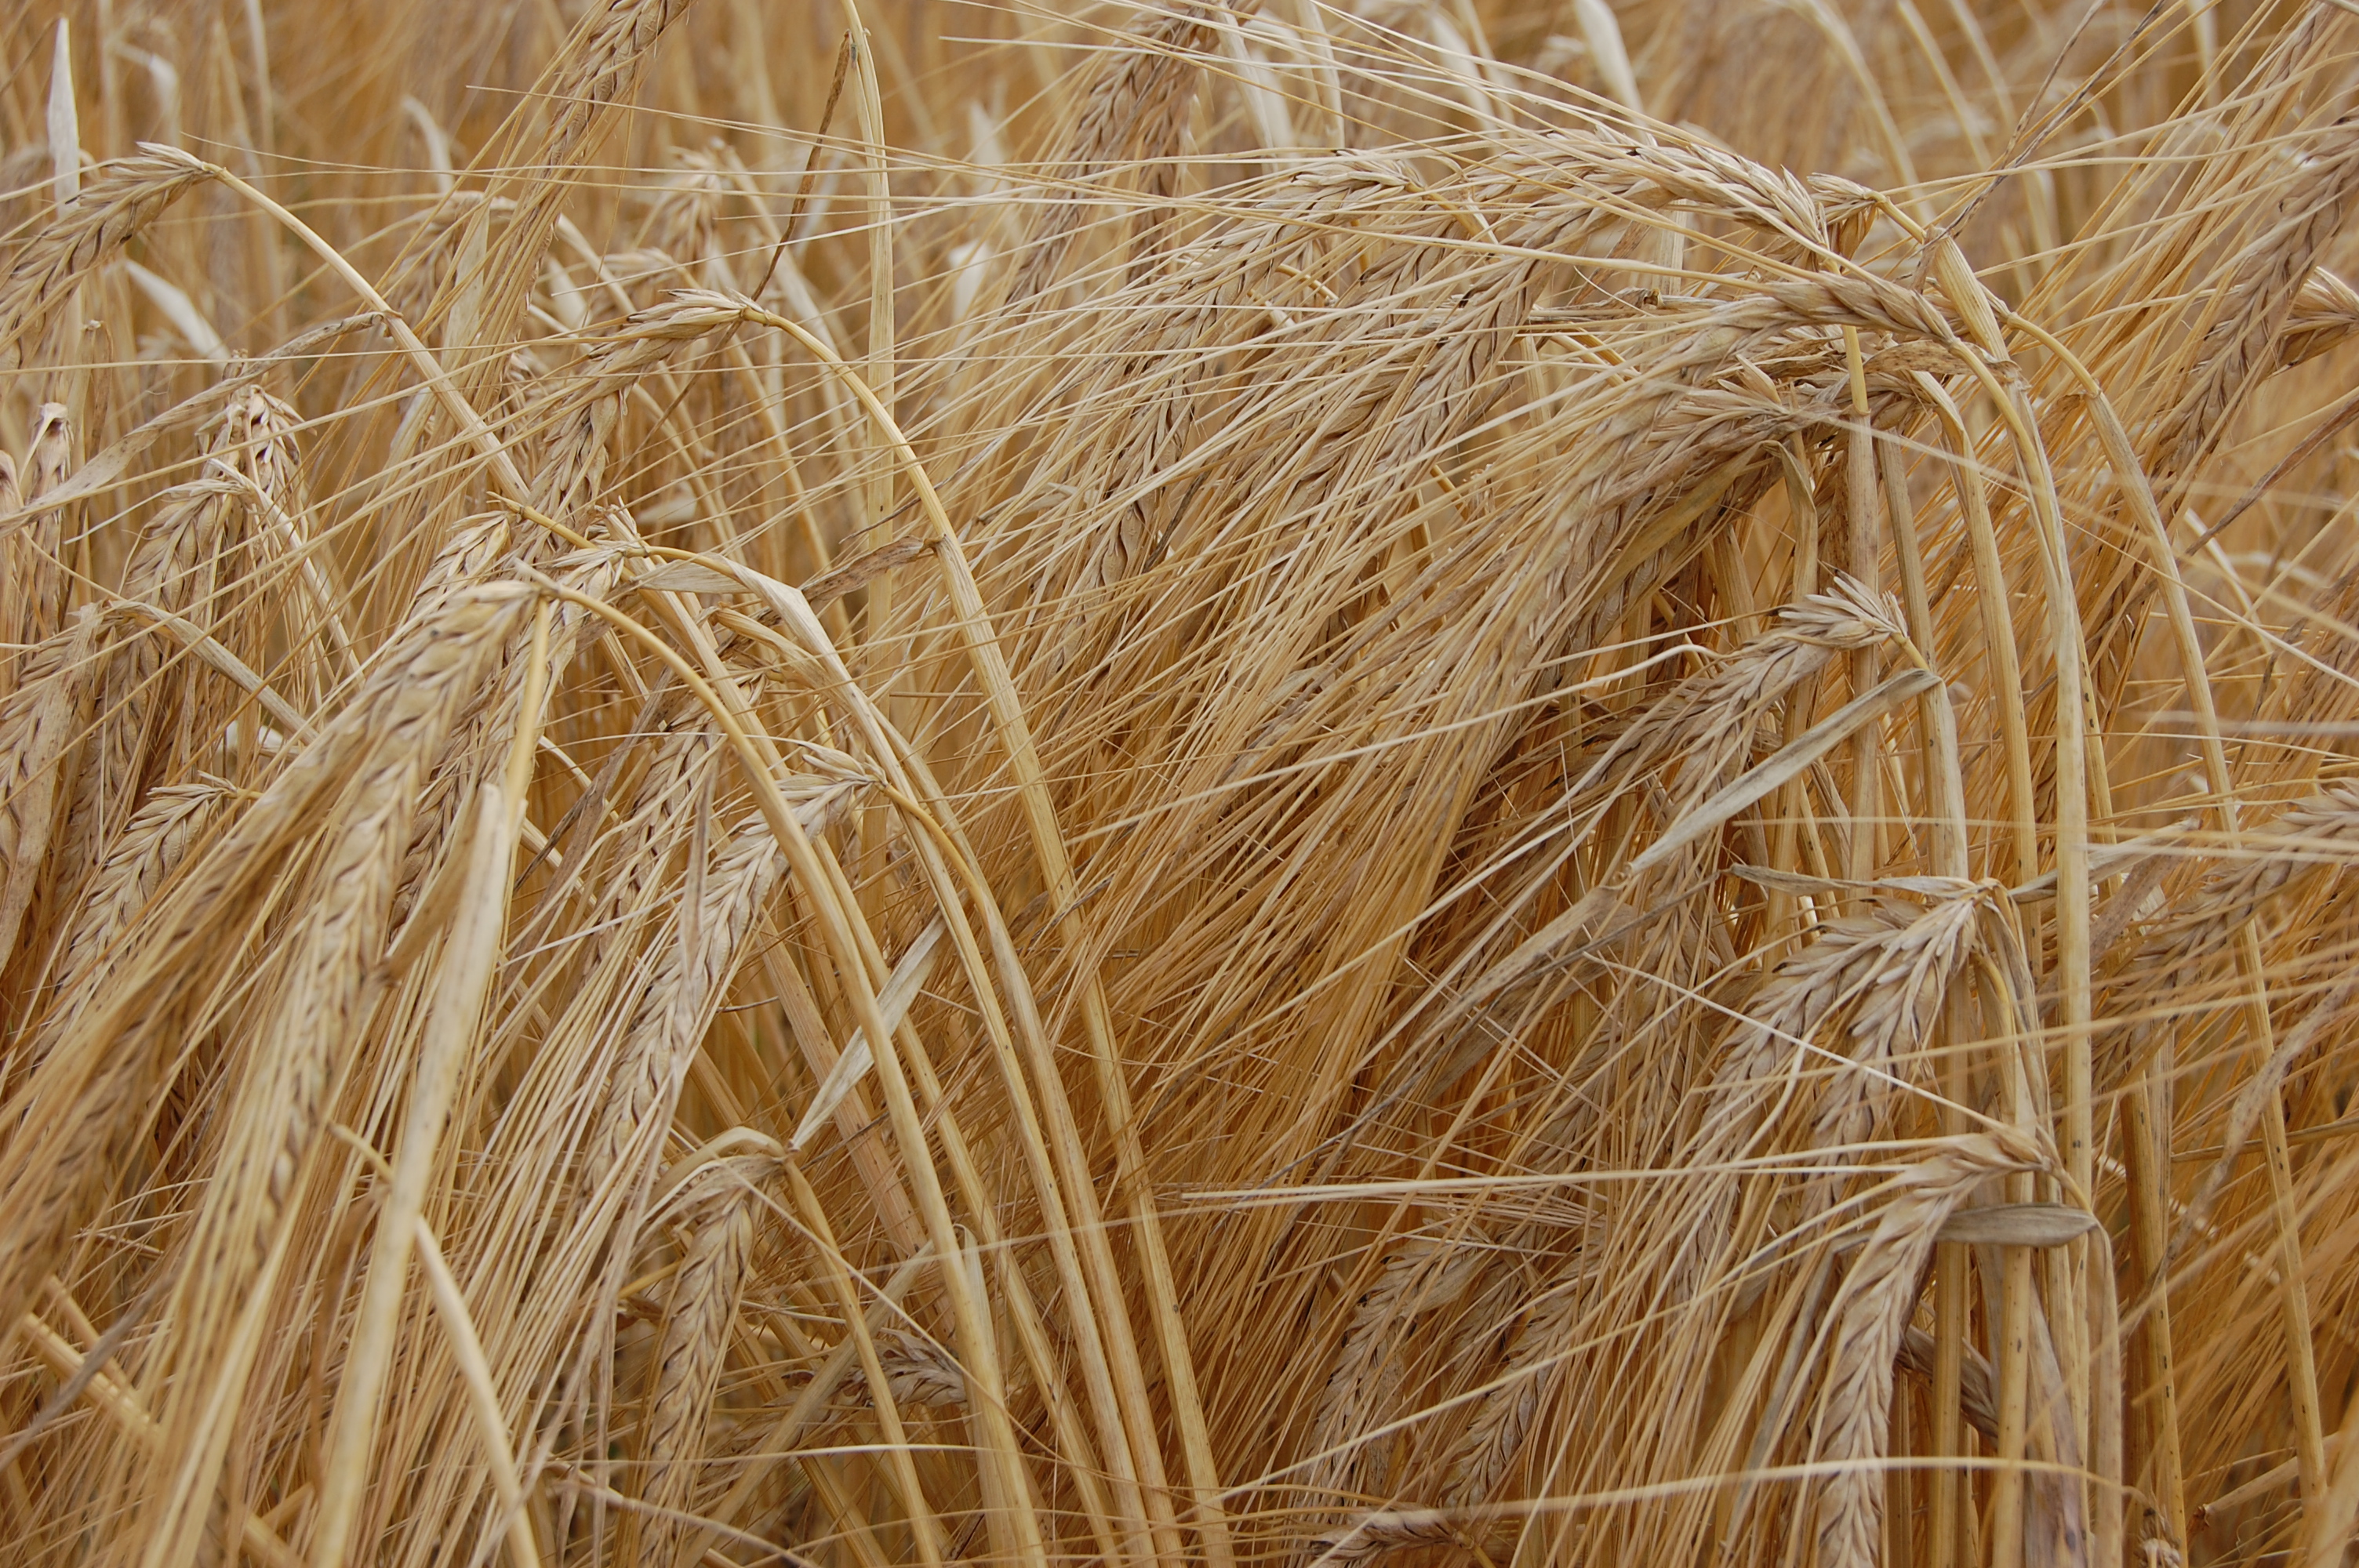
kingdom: Plantae
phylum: Tracheophyta
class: Liliopsida
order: Poales
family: Poaceae
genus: Hordeum
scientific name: Hordeum vulgare
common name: Common barley
